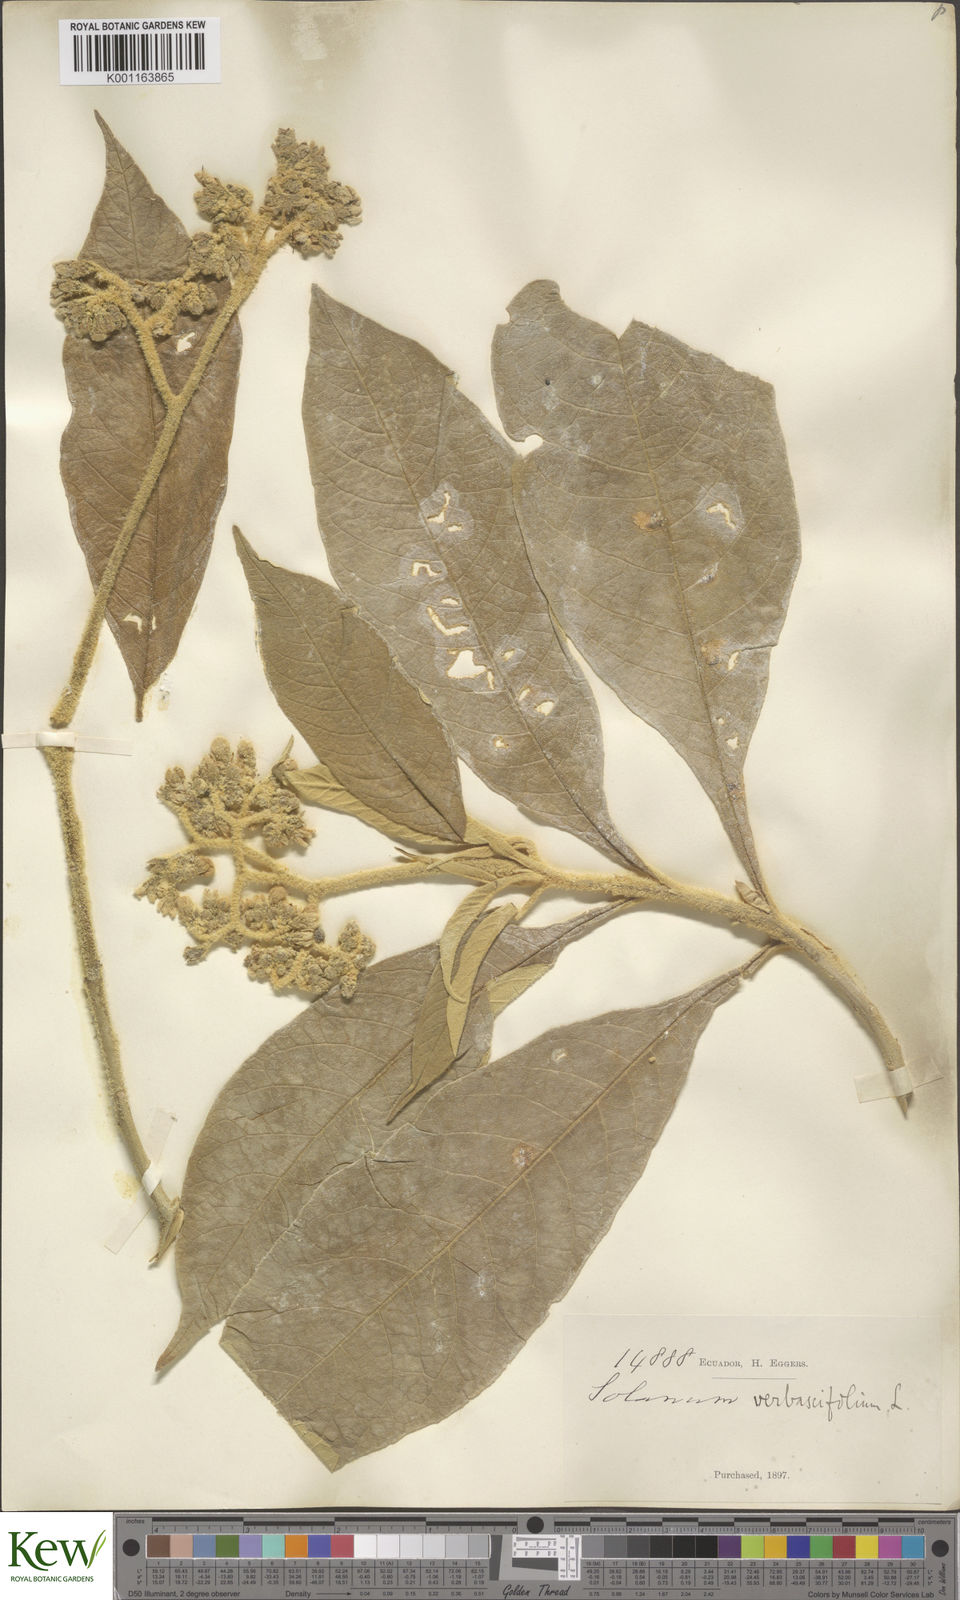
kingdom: Plantae
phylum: Tracheophyta
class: Magnoliopsida
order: Solanales
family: Solanaceae
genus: Solanum
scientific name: Solanum erianthum
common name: Tobacco-tree
